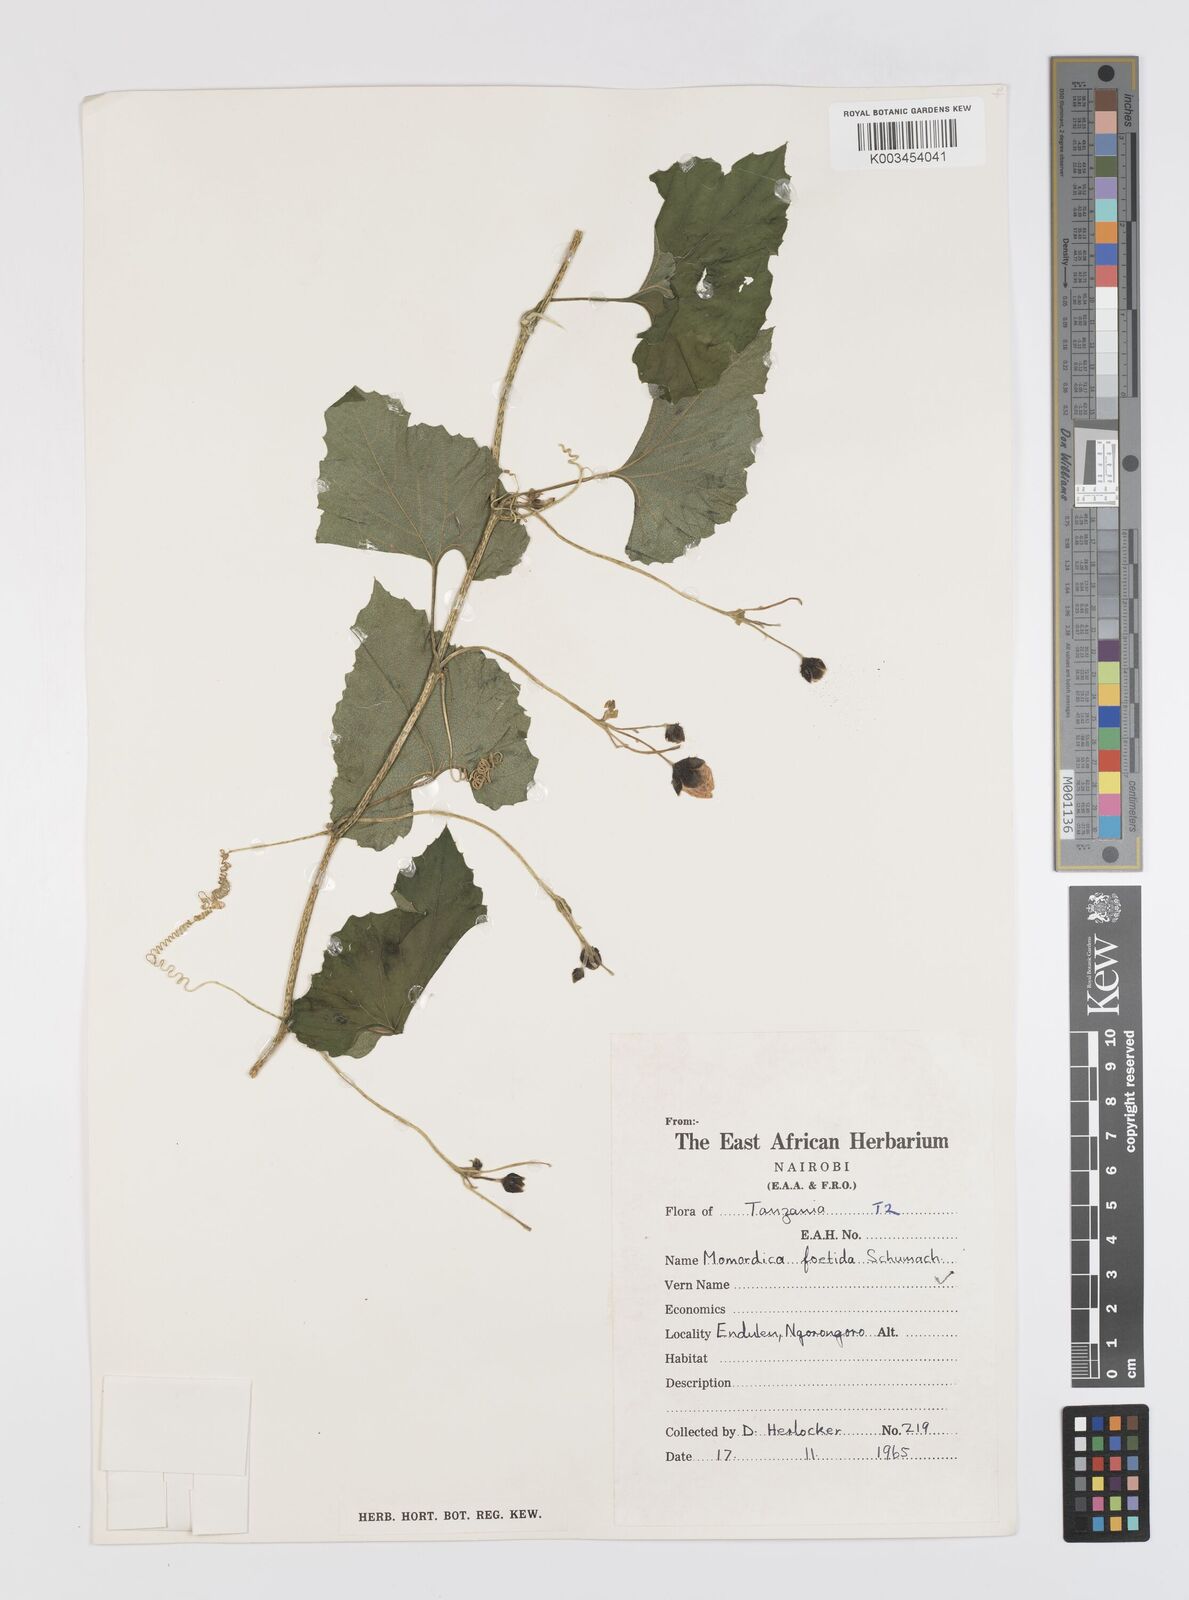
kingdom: Plantae
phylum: Tracheophyta
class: Magnoliopsida
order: Cucurbitales
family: Cucurbitaceae
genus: Momordica
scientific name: Momordica foetida
